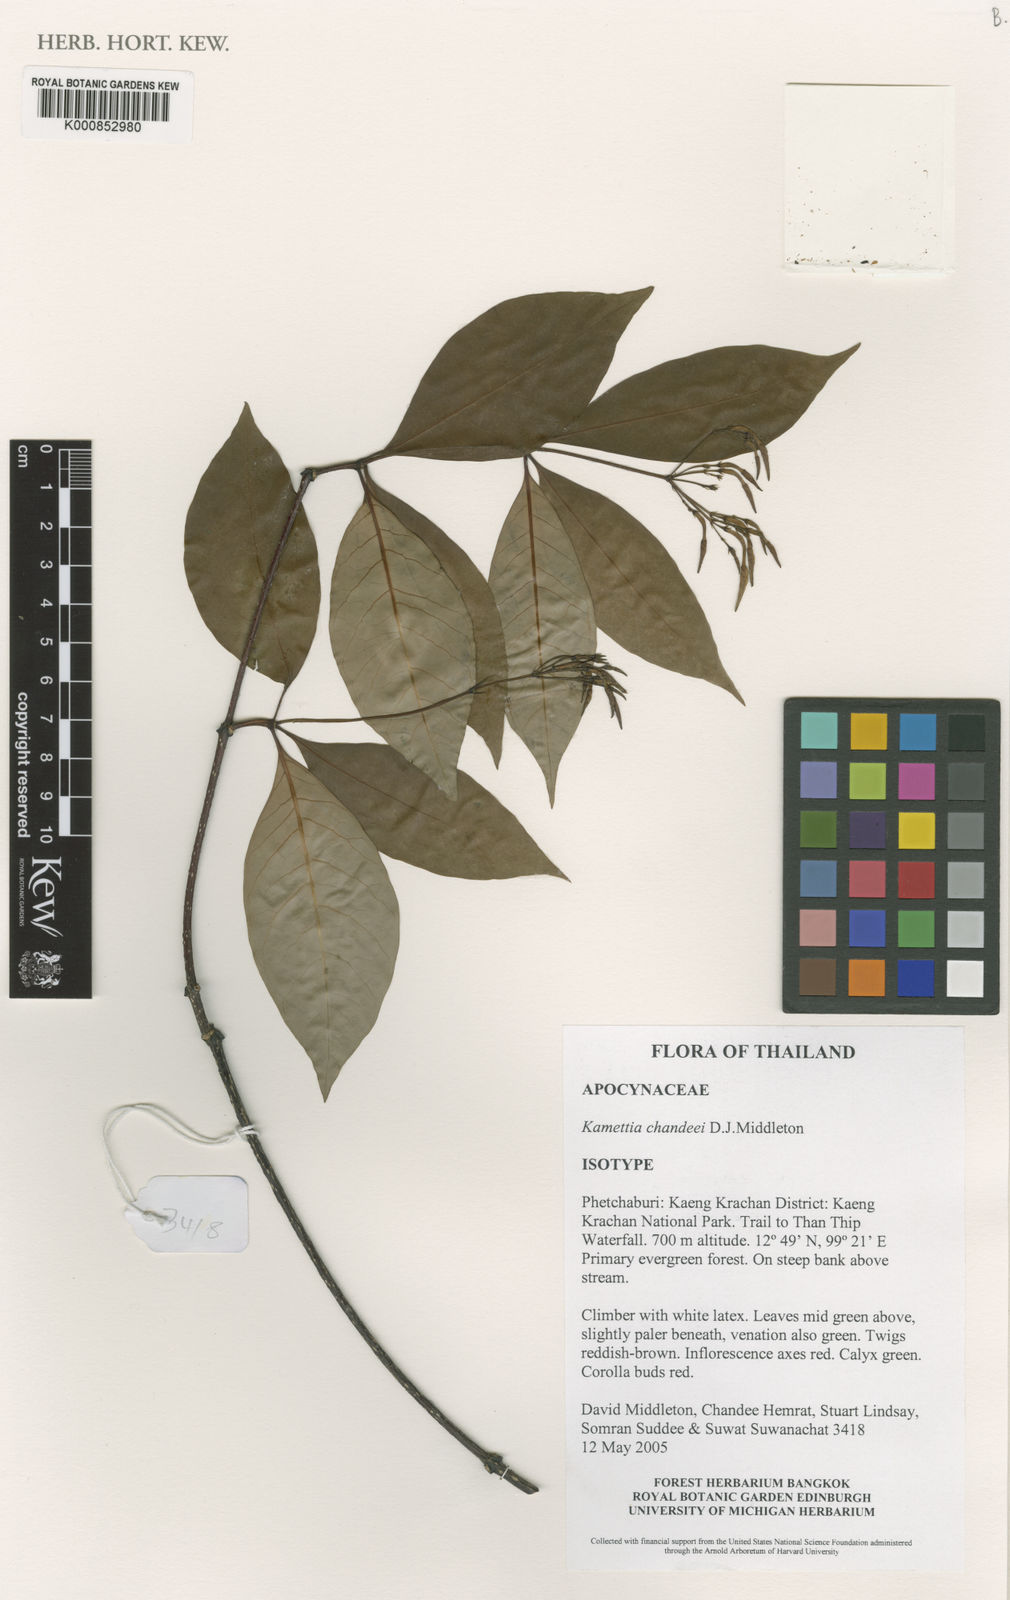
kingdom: Plantae
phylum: Tracheophyta
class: Magnoliopsida
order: Gentianales
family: Apocynaceae
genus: Kamettia
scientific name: Kamettia chandeei
